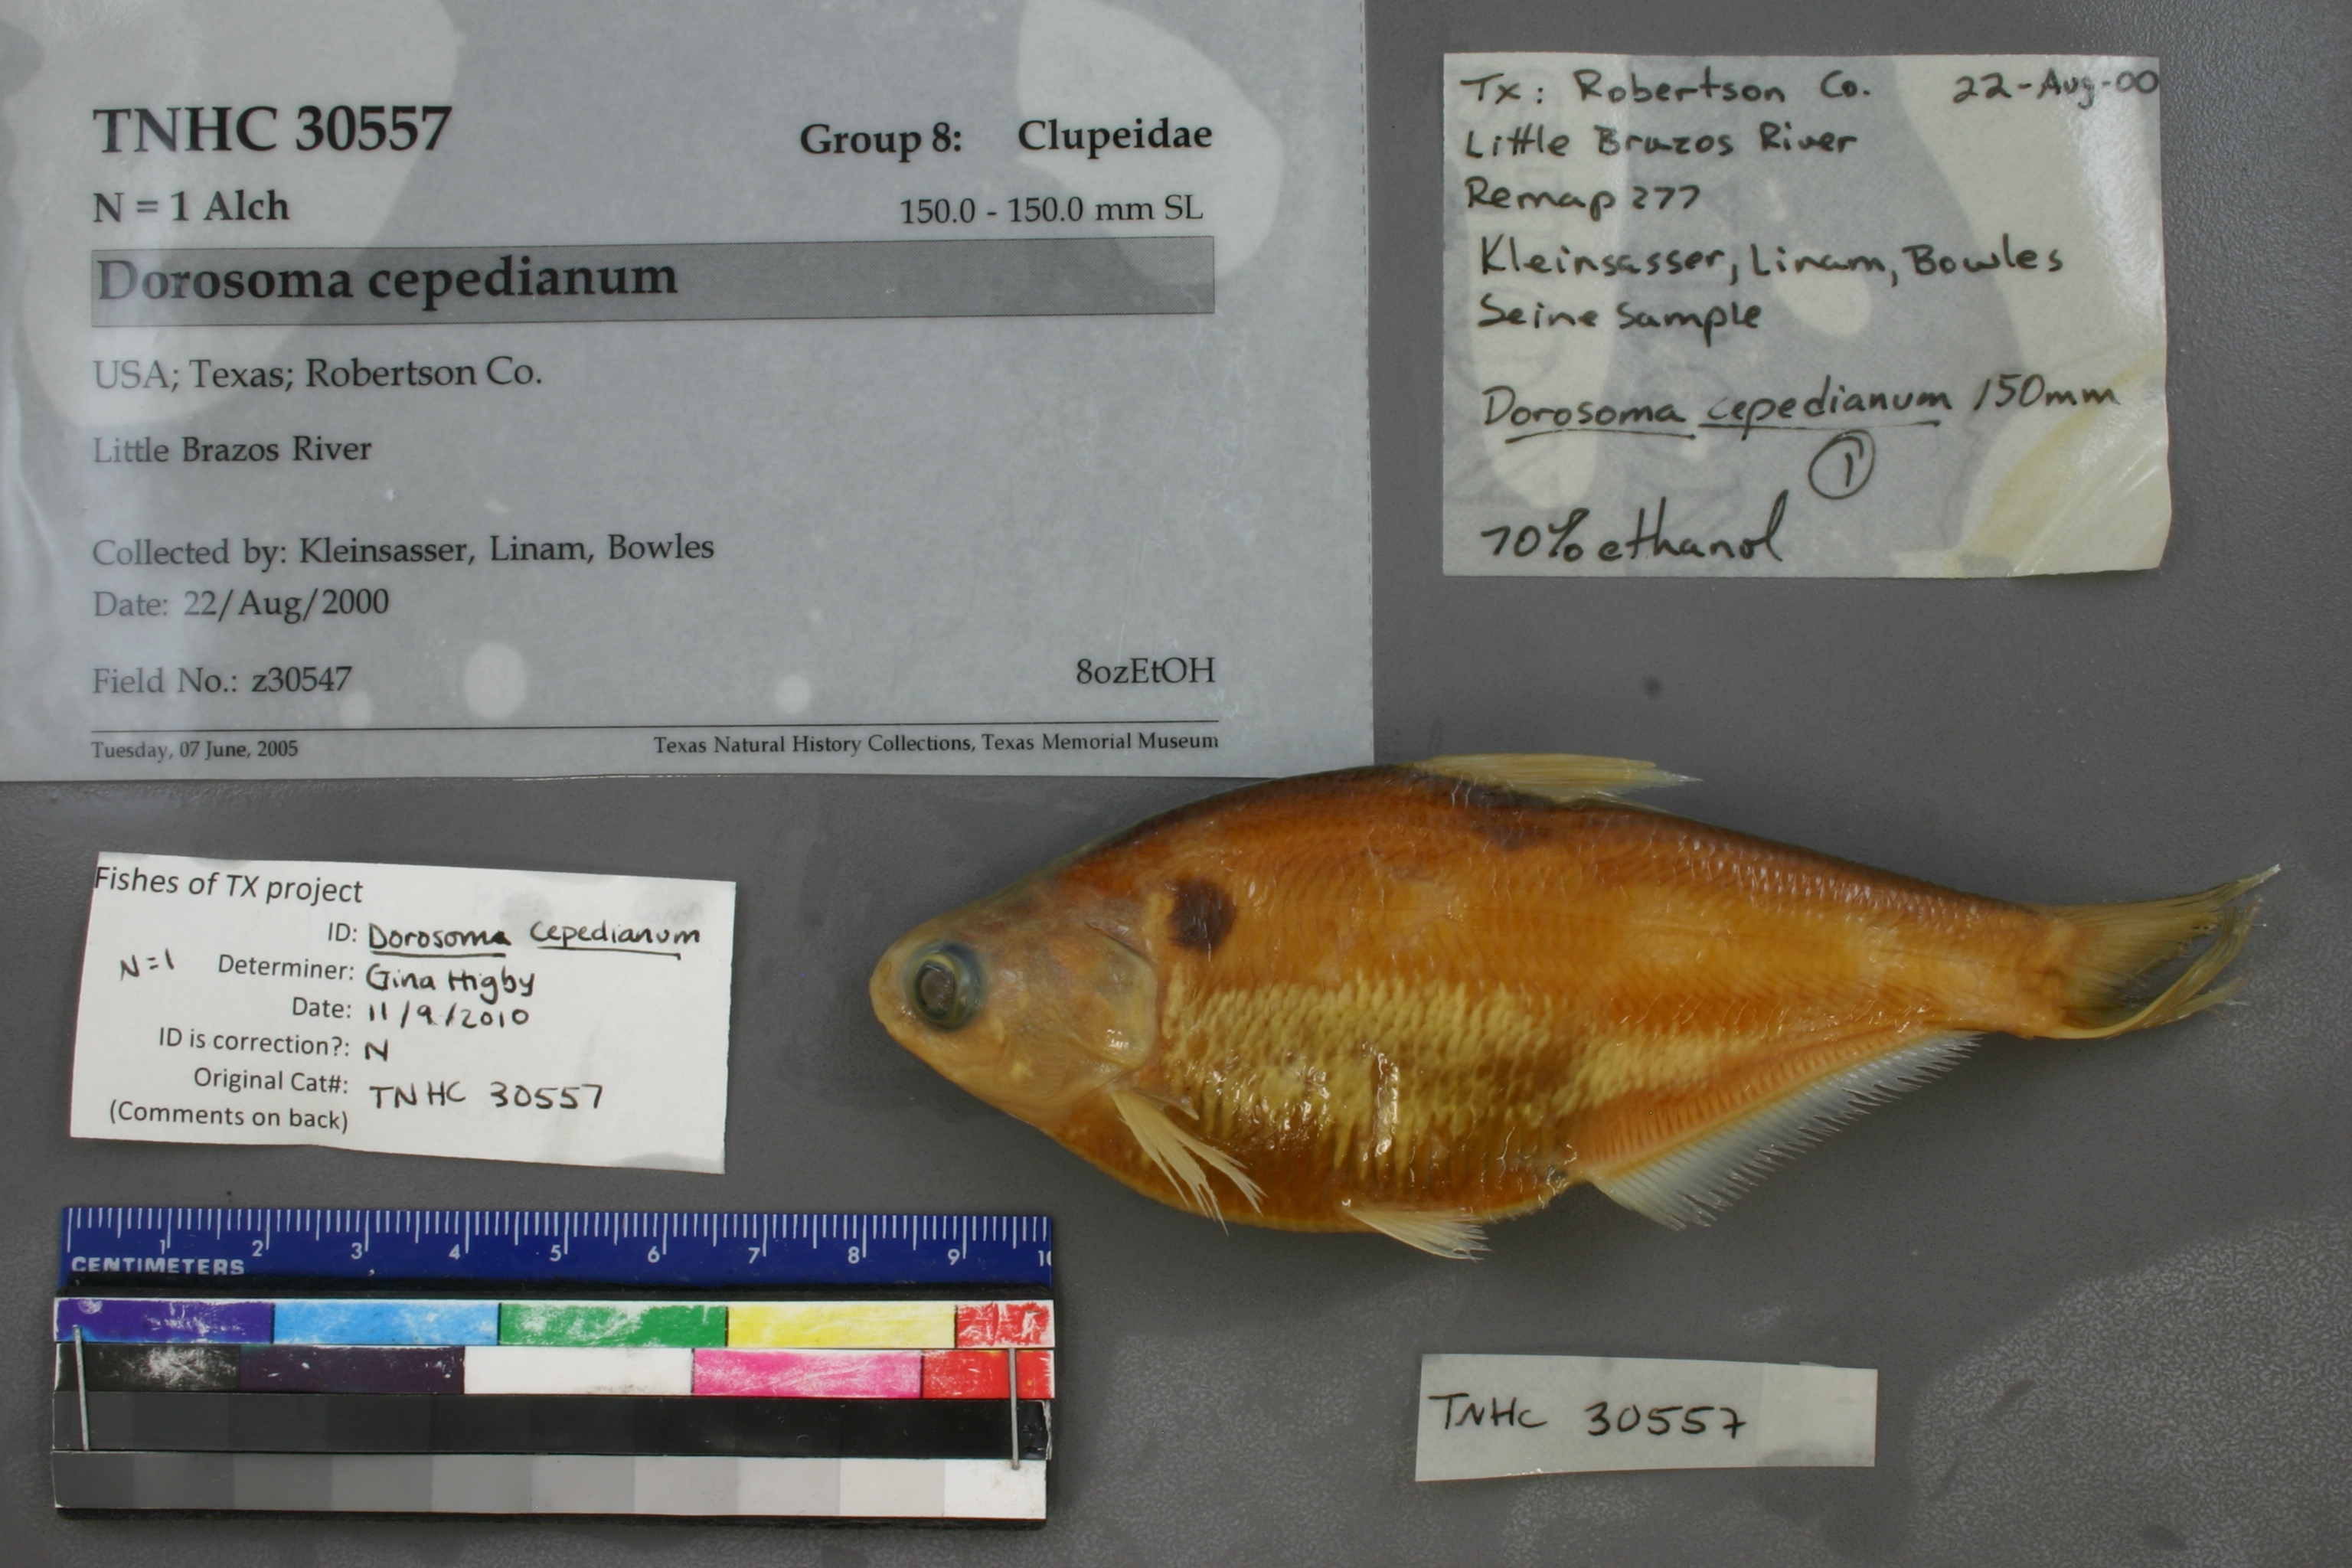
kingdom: Animalia
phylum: Chordata
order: Clupeiformes
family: Clupeidae
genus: Dorosoma
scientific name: Dorosoma cepedianum
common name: Gizzard shad
